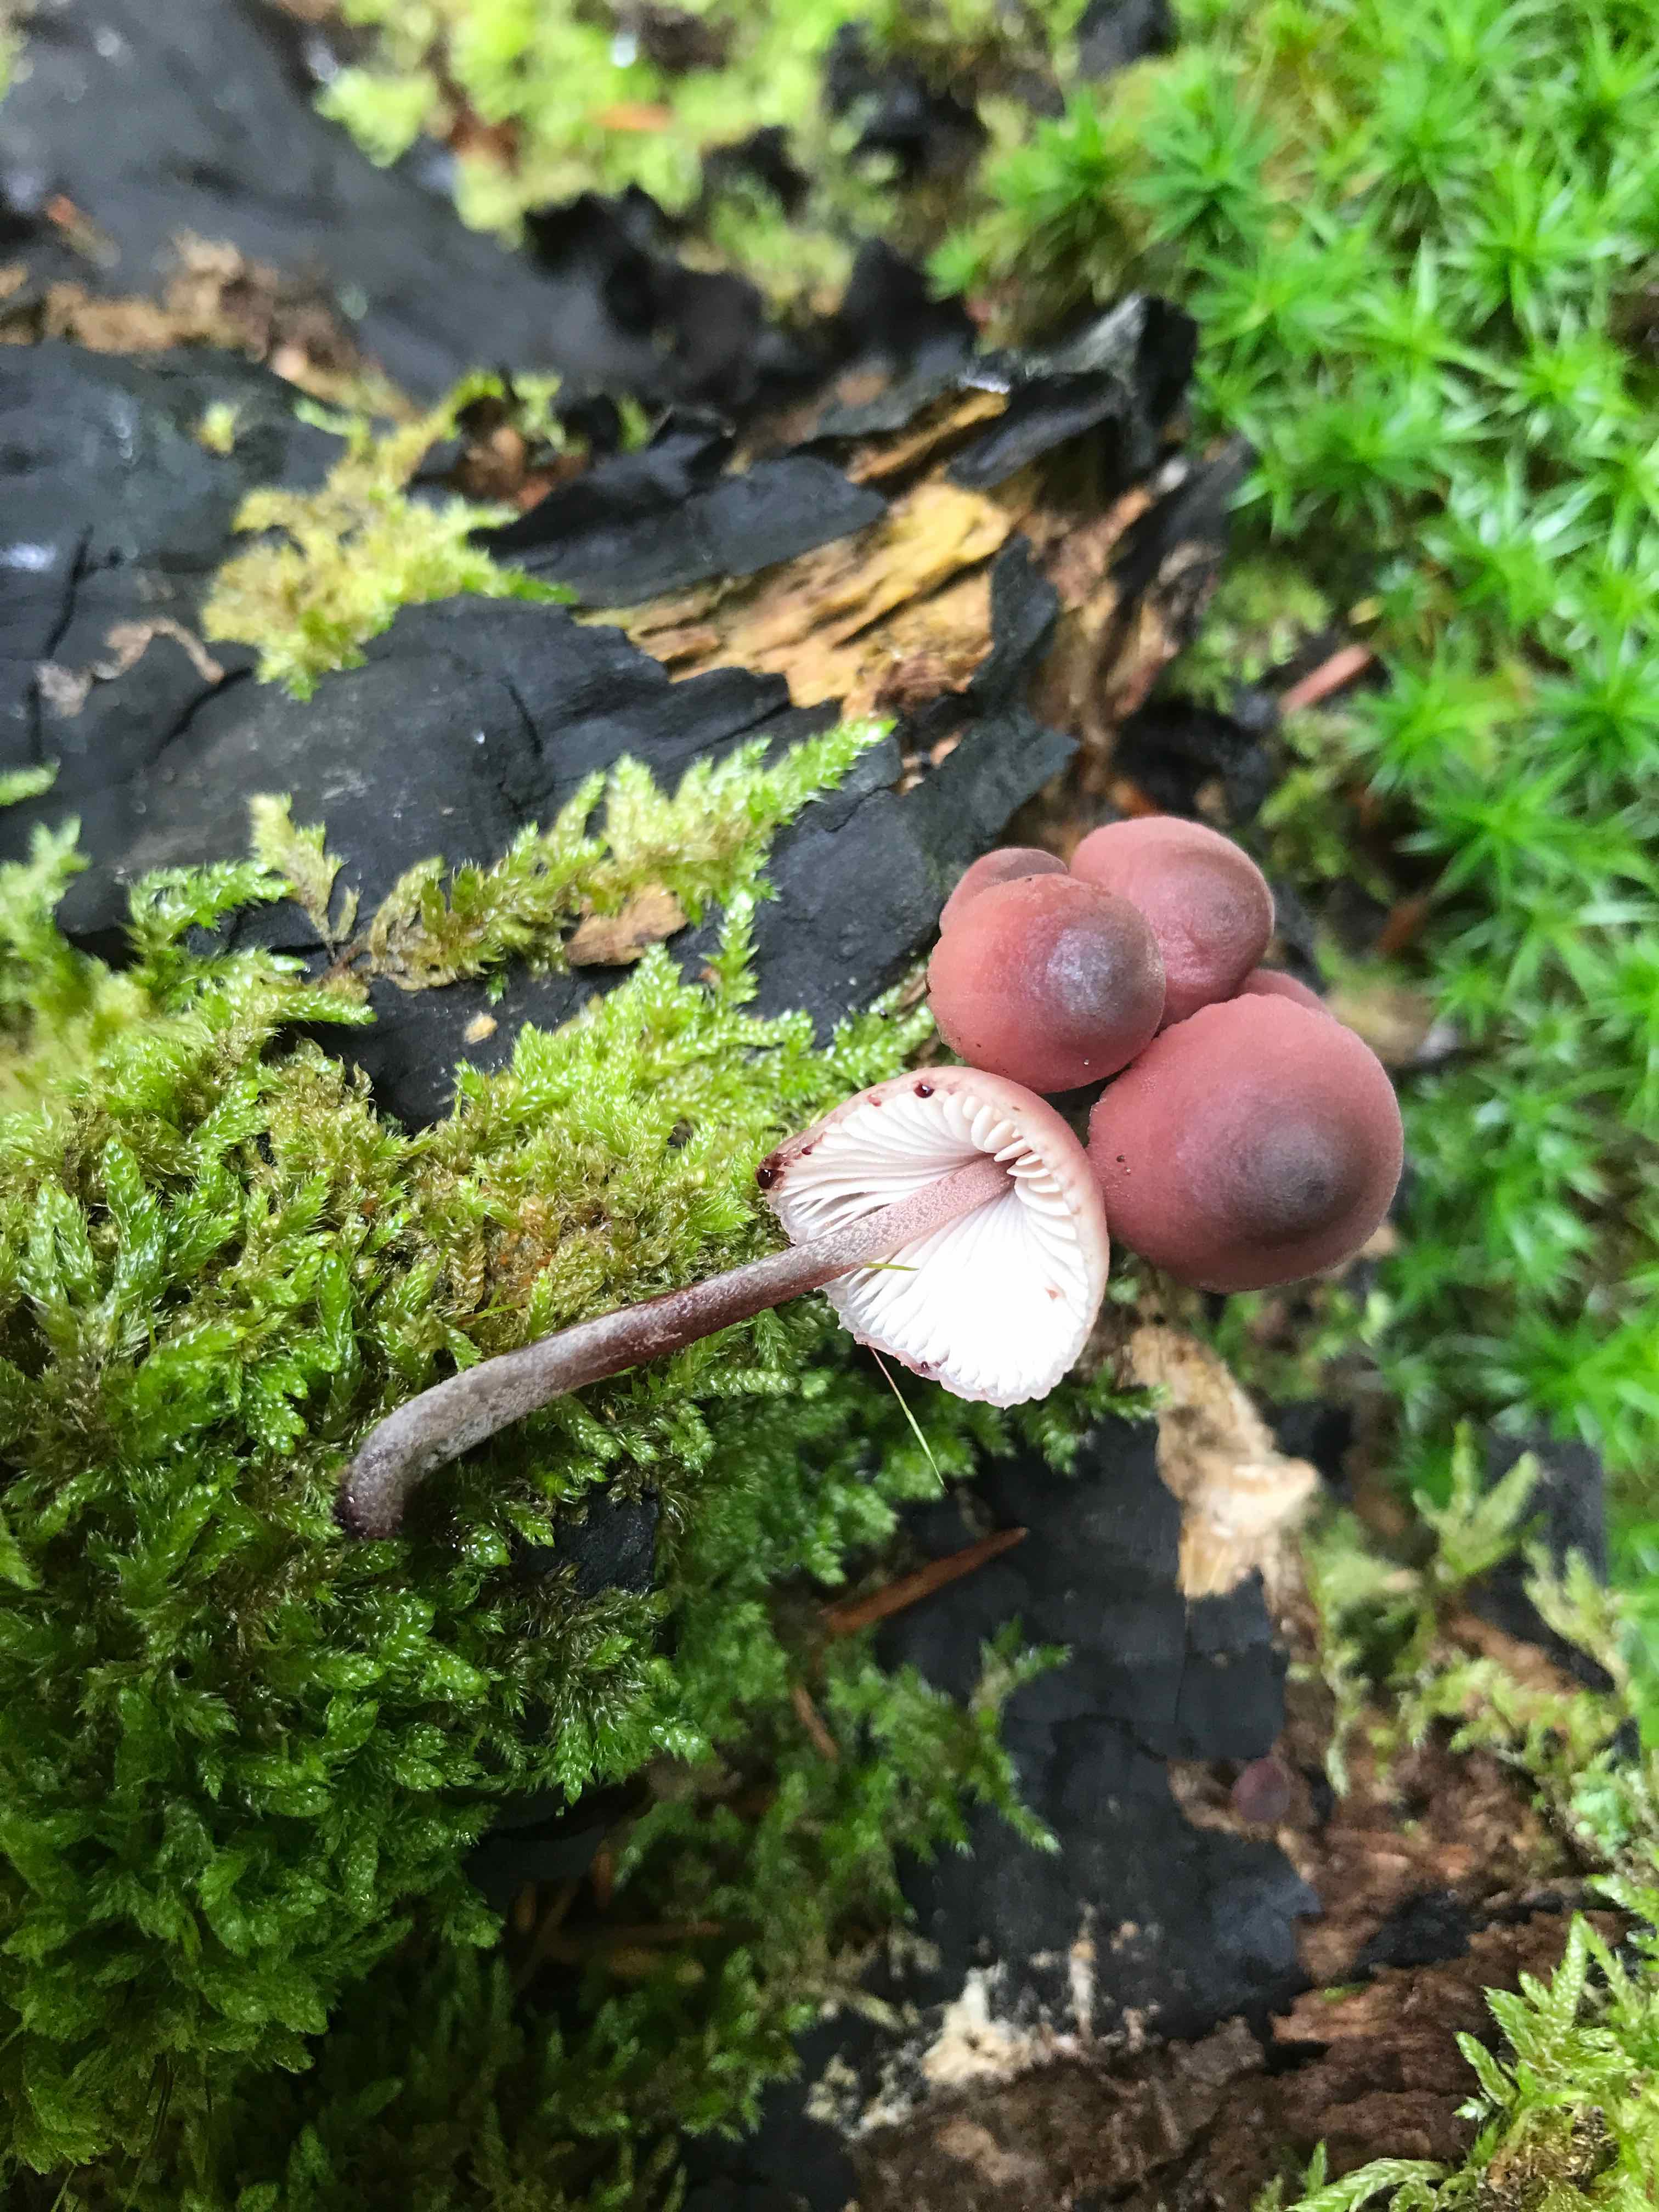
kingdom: Fungi
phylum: Basidiomycota
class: Agaricomycetes
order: Agaricales
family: Mycenaceae
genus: Mycena
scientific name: Mycena haematopus
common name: blødende huesvamp
